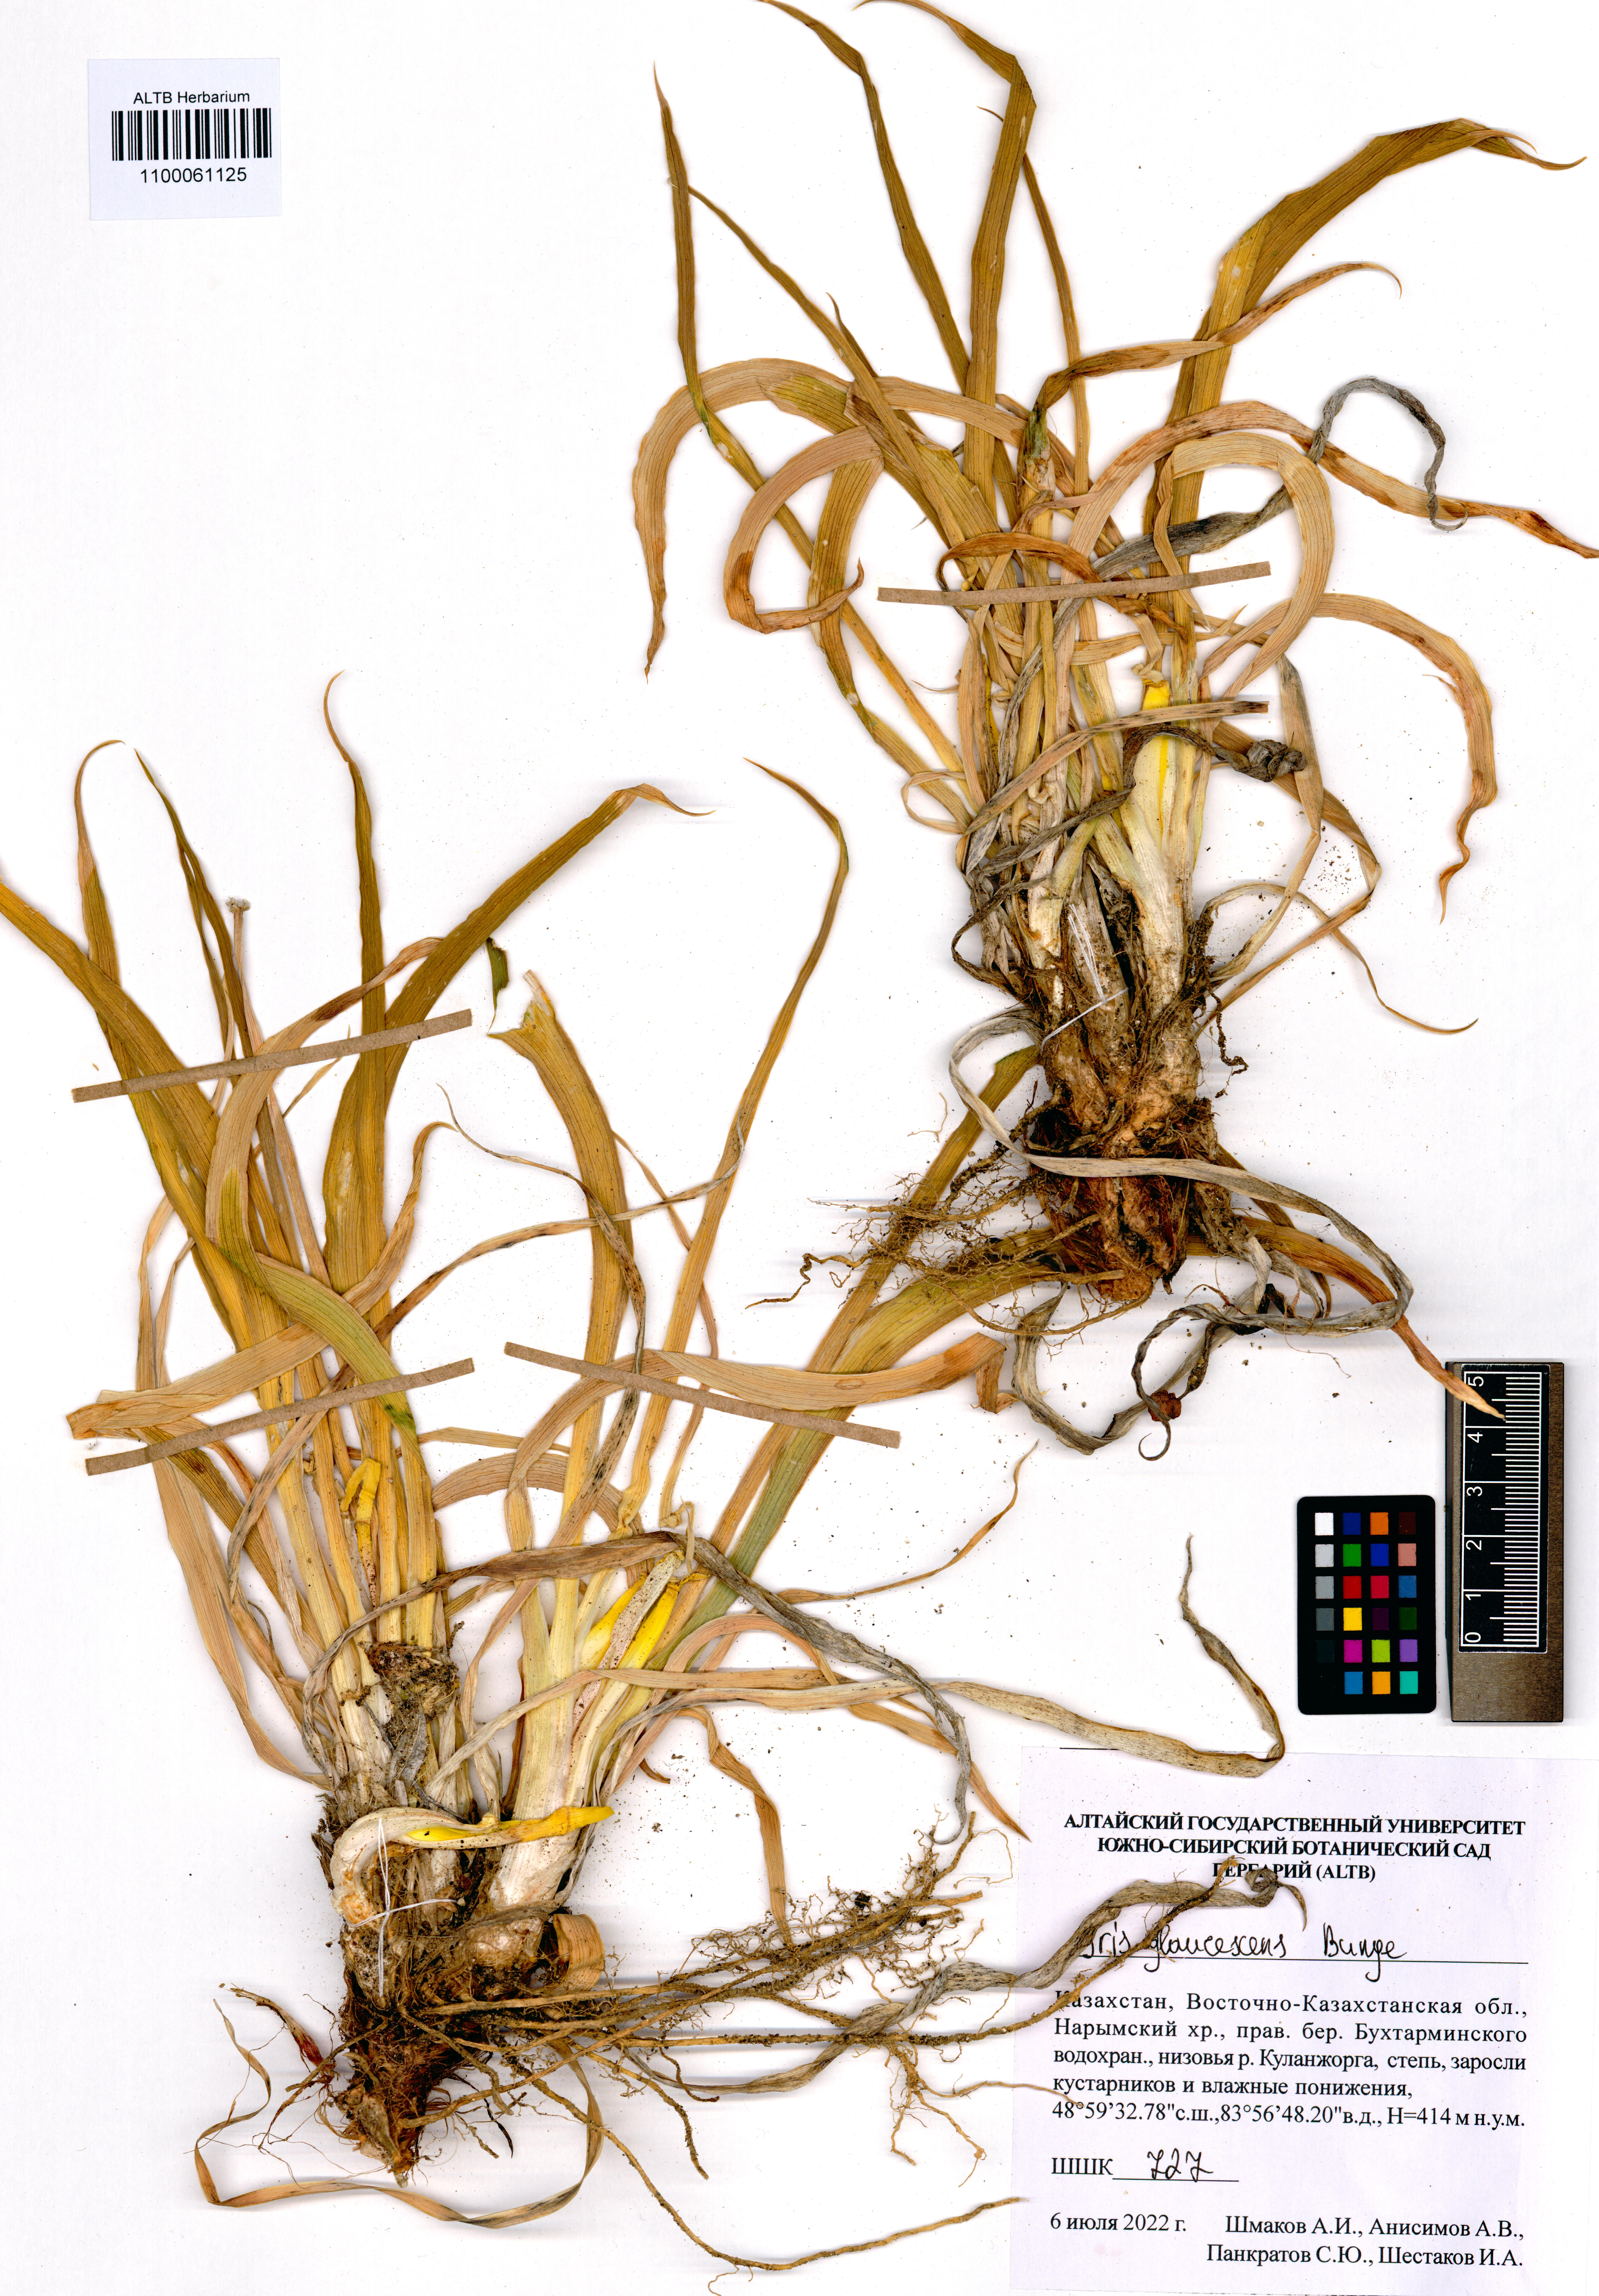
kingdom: Plantae
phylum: Tracheophyta
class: Liliopsida
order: Asparagales
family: Iridaceae
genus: Iris
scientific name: Iris glaucescens
